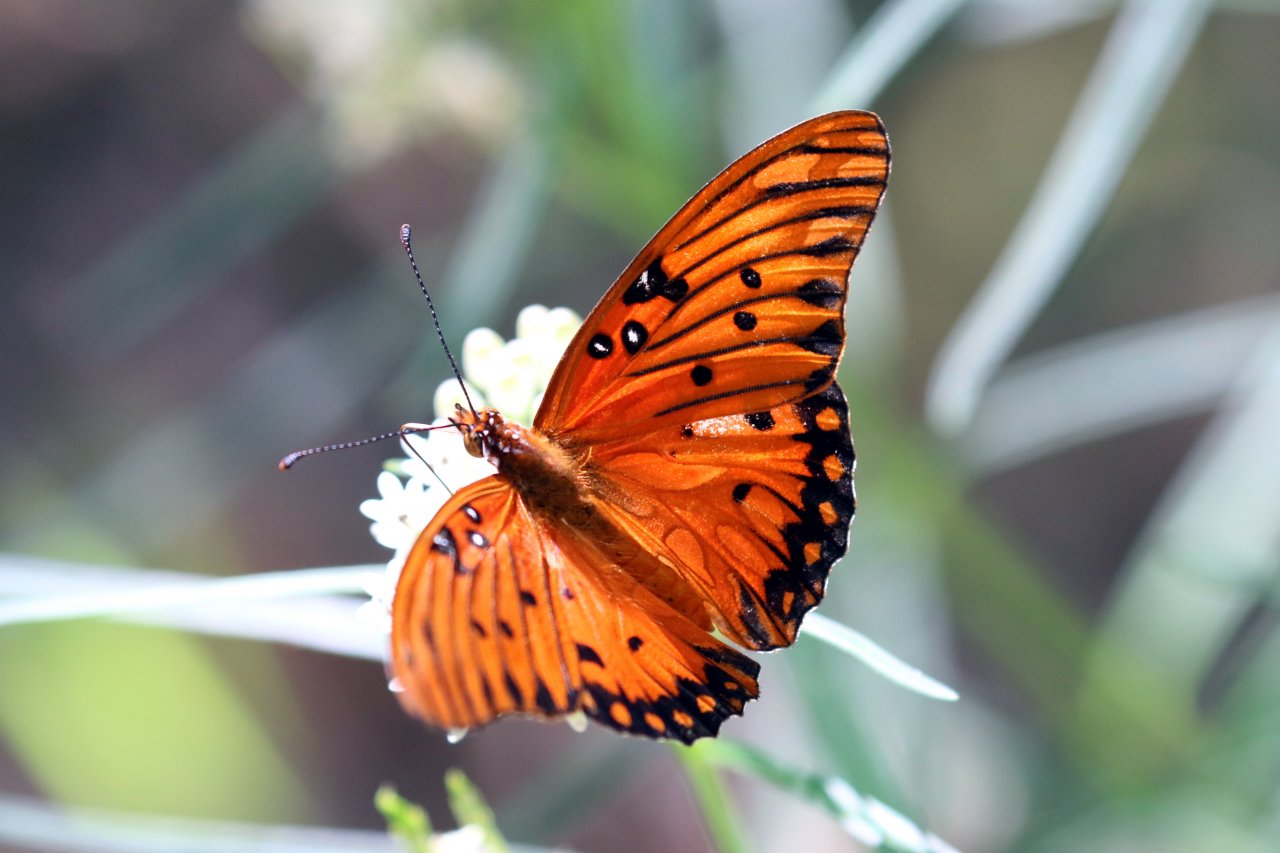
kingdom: Animalia
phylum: Arthropoda
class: Insecta
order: Lepidoptera
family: Nymphalidae
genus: Dione
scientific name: Dione vanillae
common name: Gulf Fritillary
